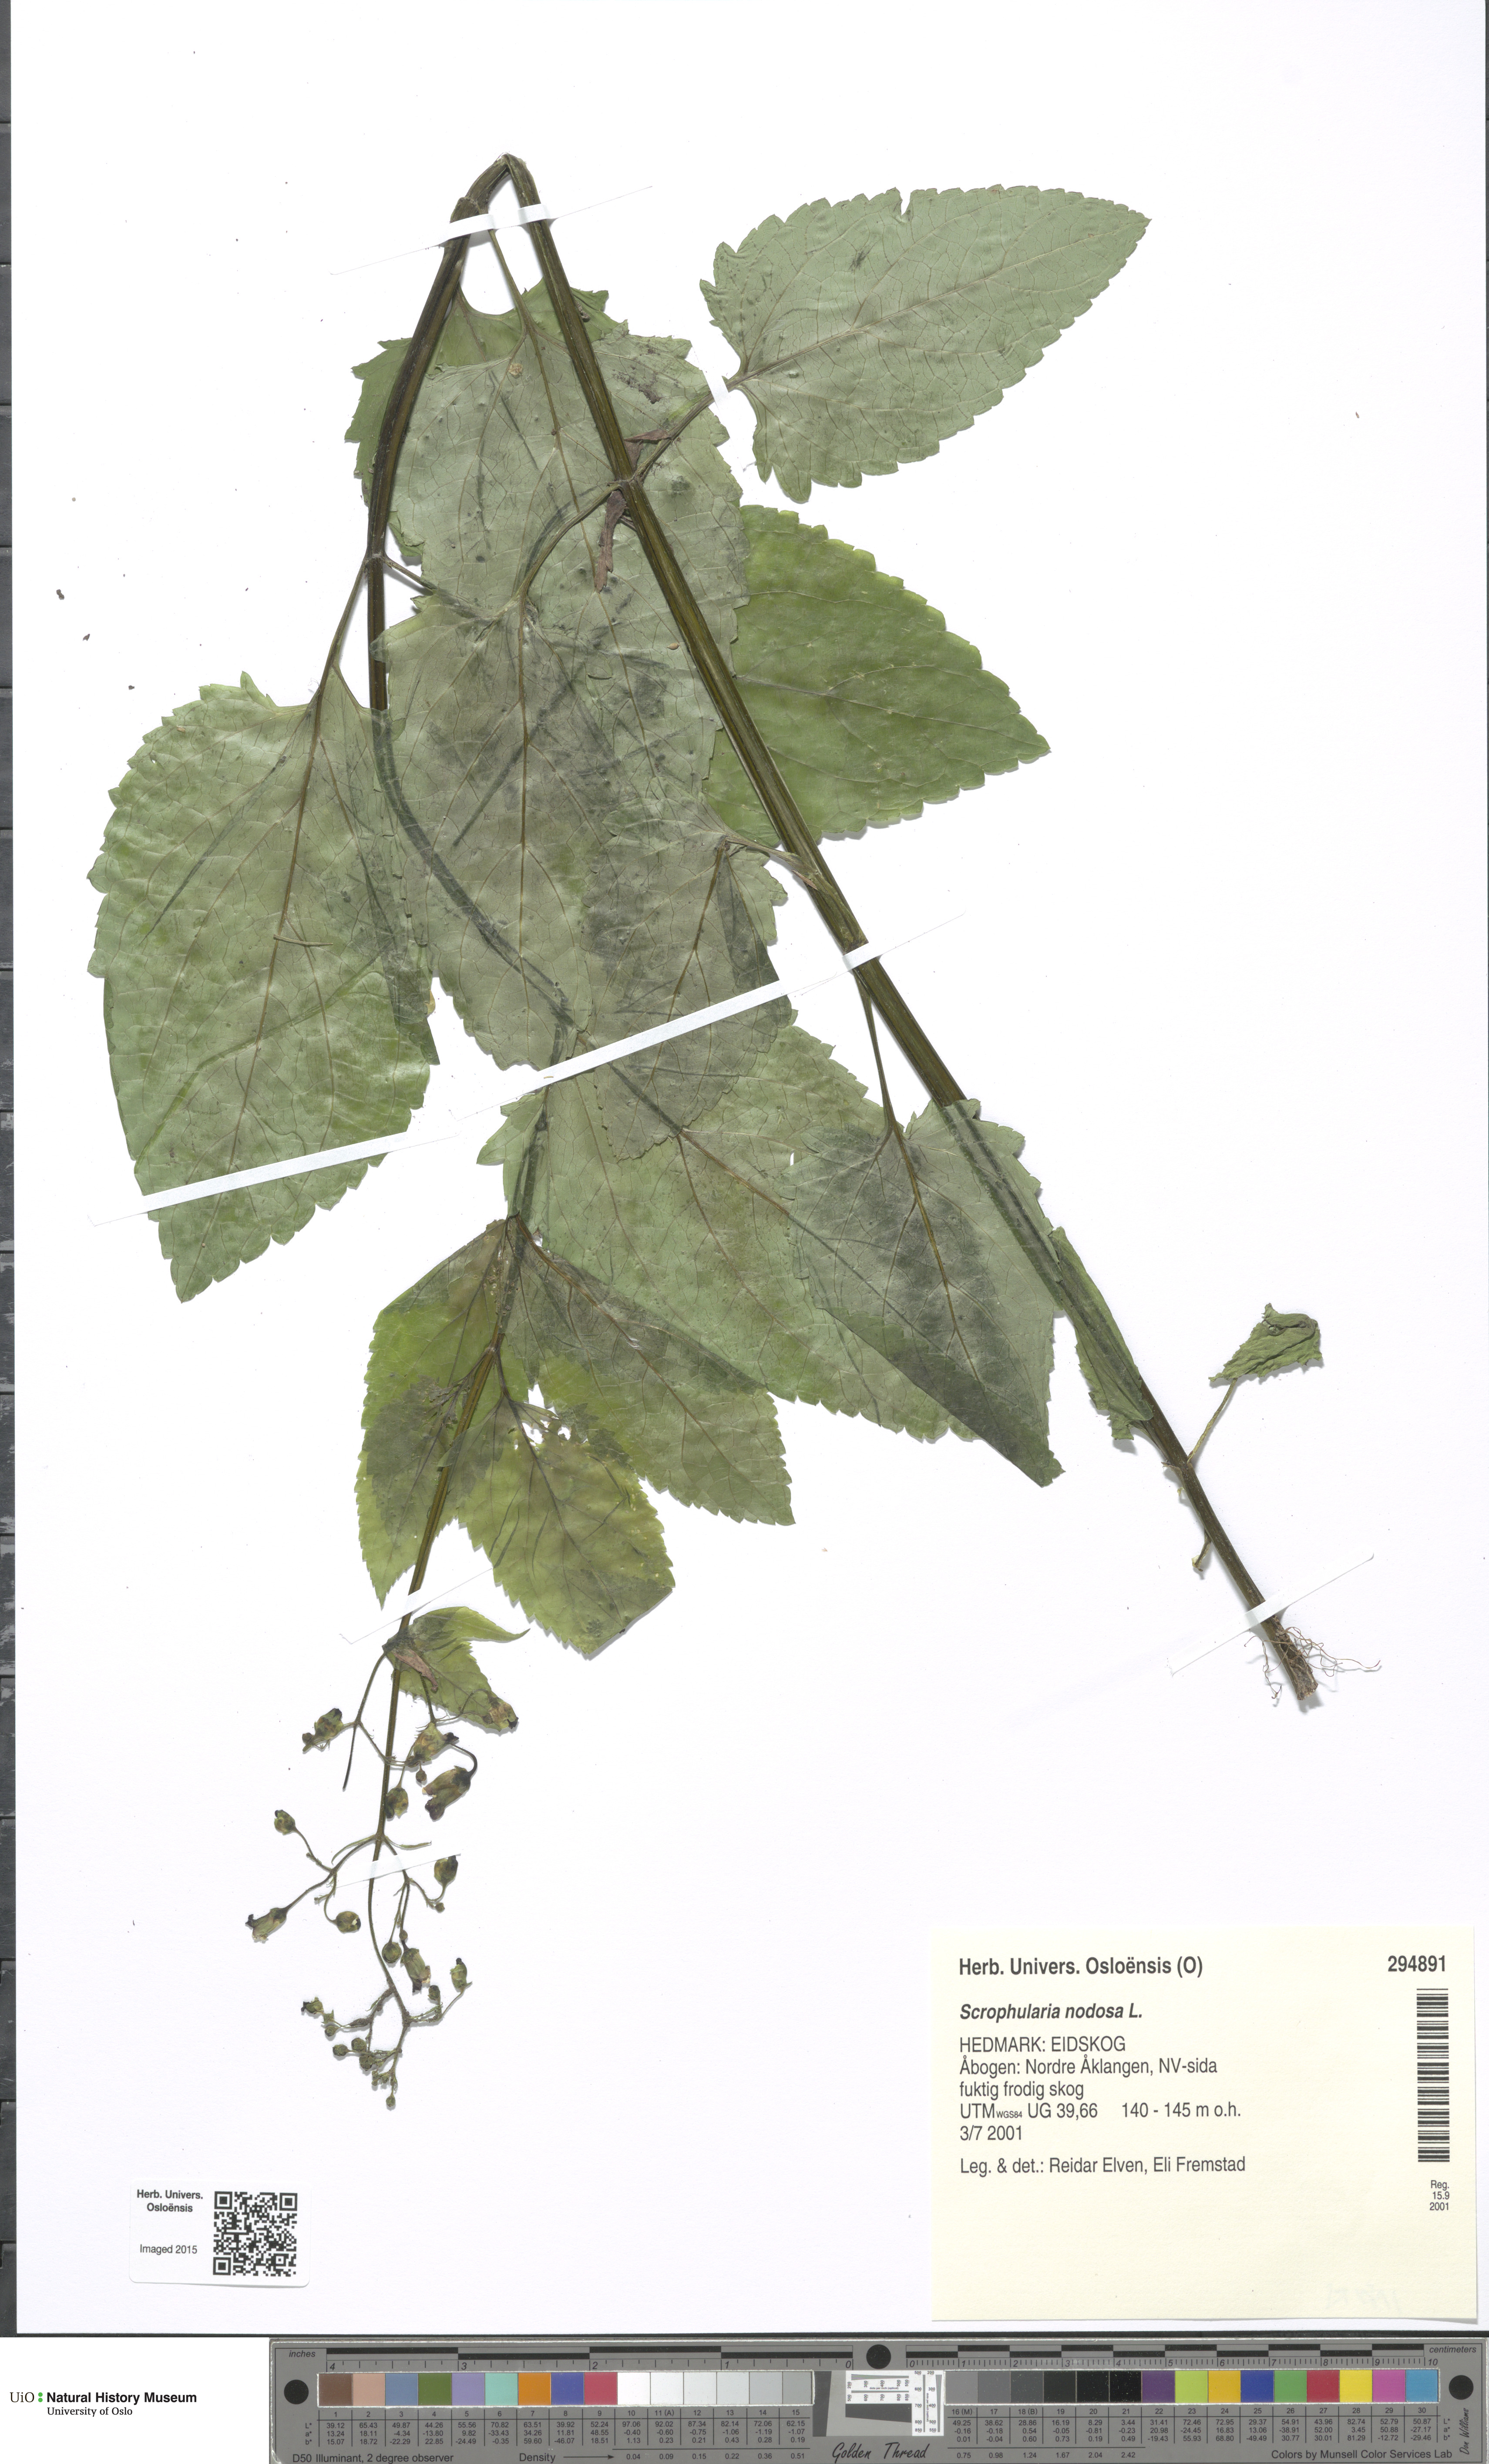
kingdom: Plantae
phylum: Tracheophyta
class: Magnoliopsida
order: Lamiales
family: Scrophulariaceae
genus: Scrophularia
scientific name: Scrophularia nodosa
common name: Common figwort
